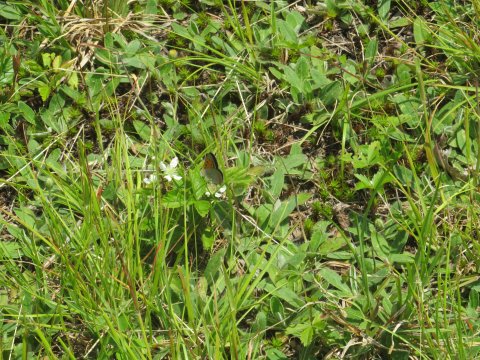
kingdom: Animalia
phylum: Arthropoda
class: Insecta
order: Lepidoptera
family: Lycaenidae
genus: Lycaena
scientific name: Lycaena phlaeas
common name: American Copper
